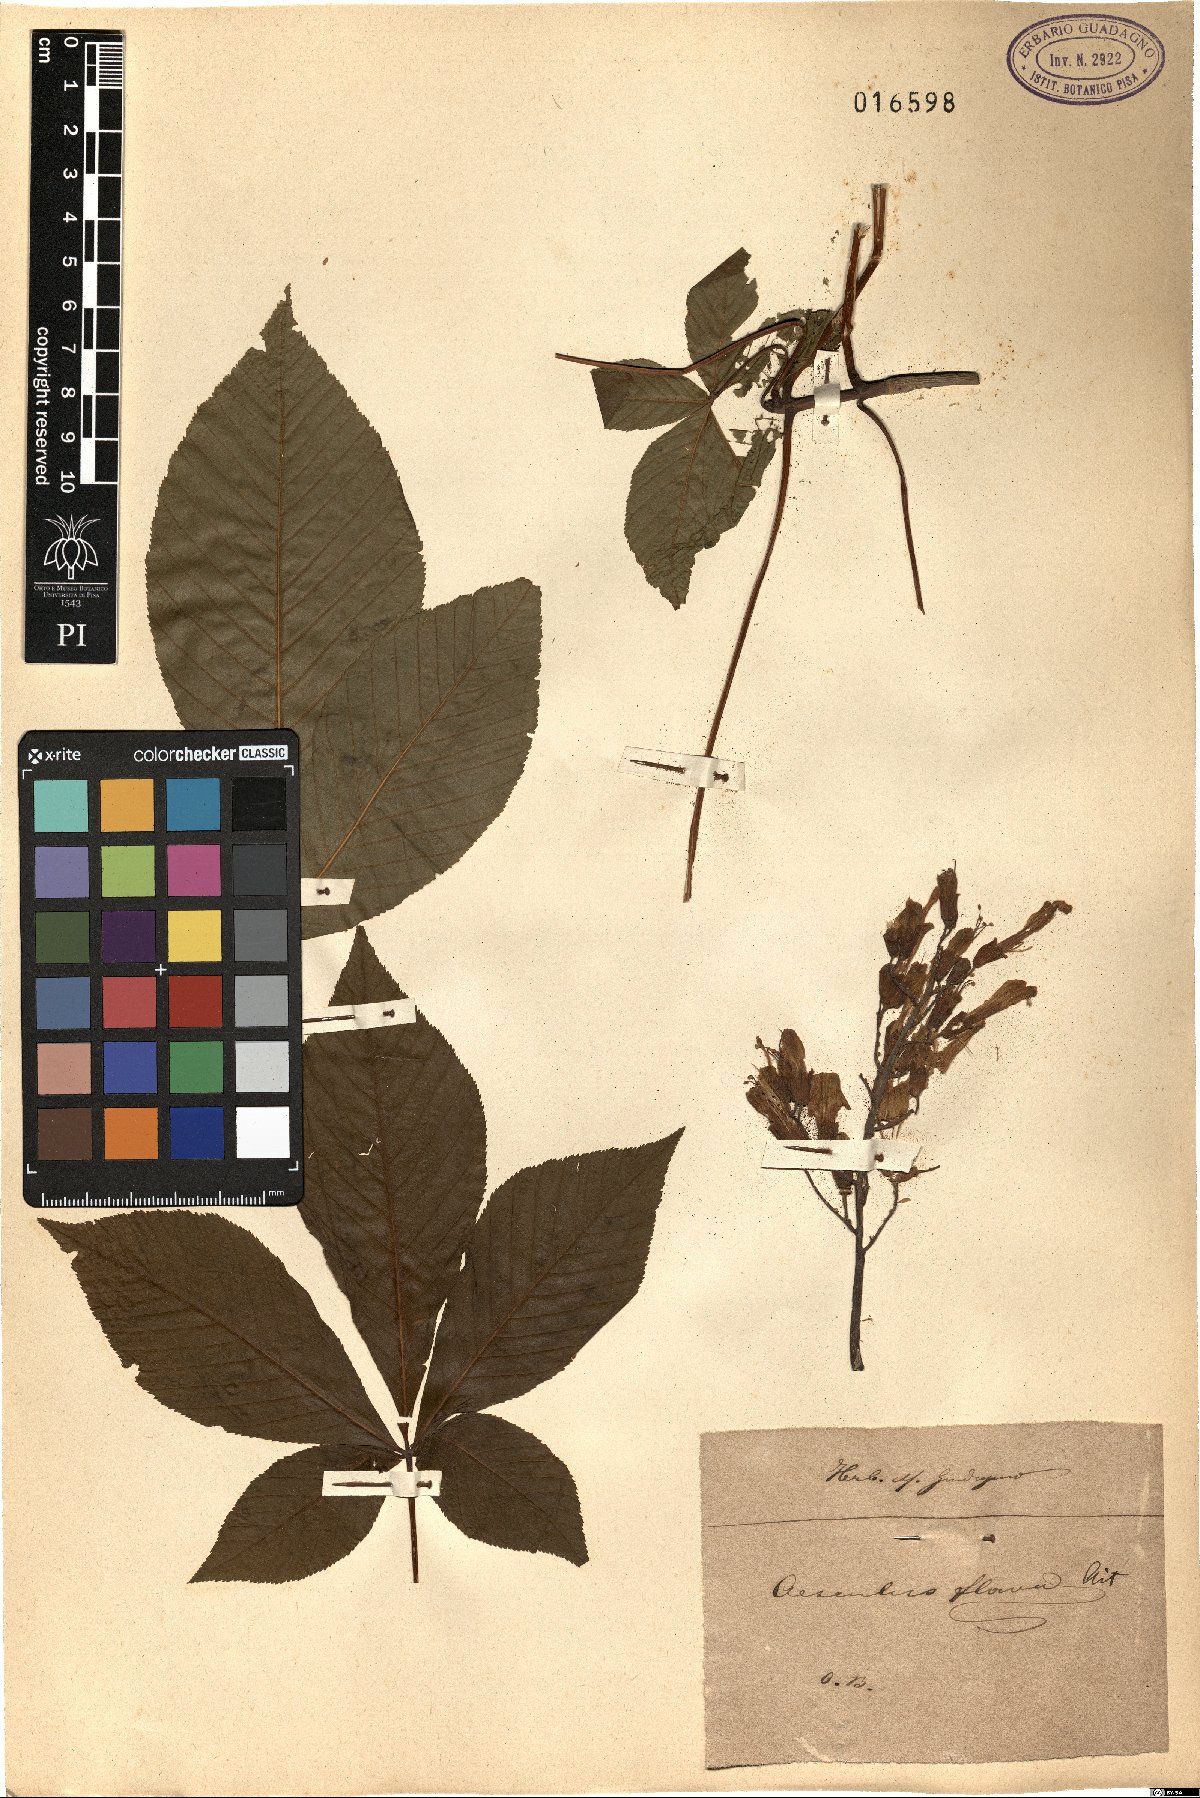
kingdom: Plantae
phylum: Tracheophyta
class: Magnoliopsida
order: Sapindales
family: Sapindaceae
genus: Aesculus
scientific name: Aesculus flava
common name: Yellow buckeye
